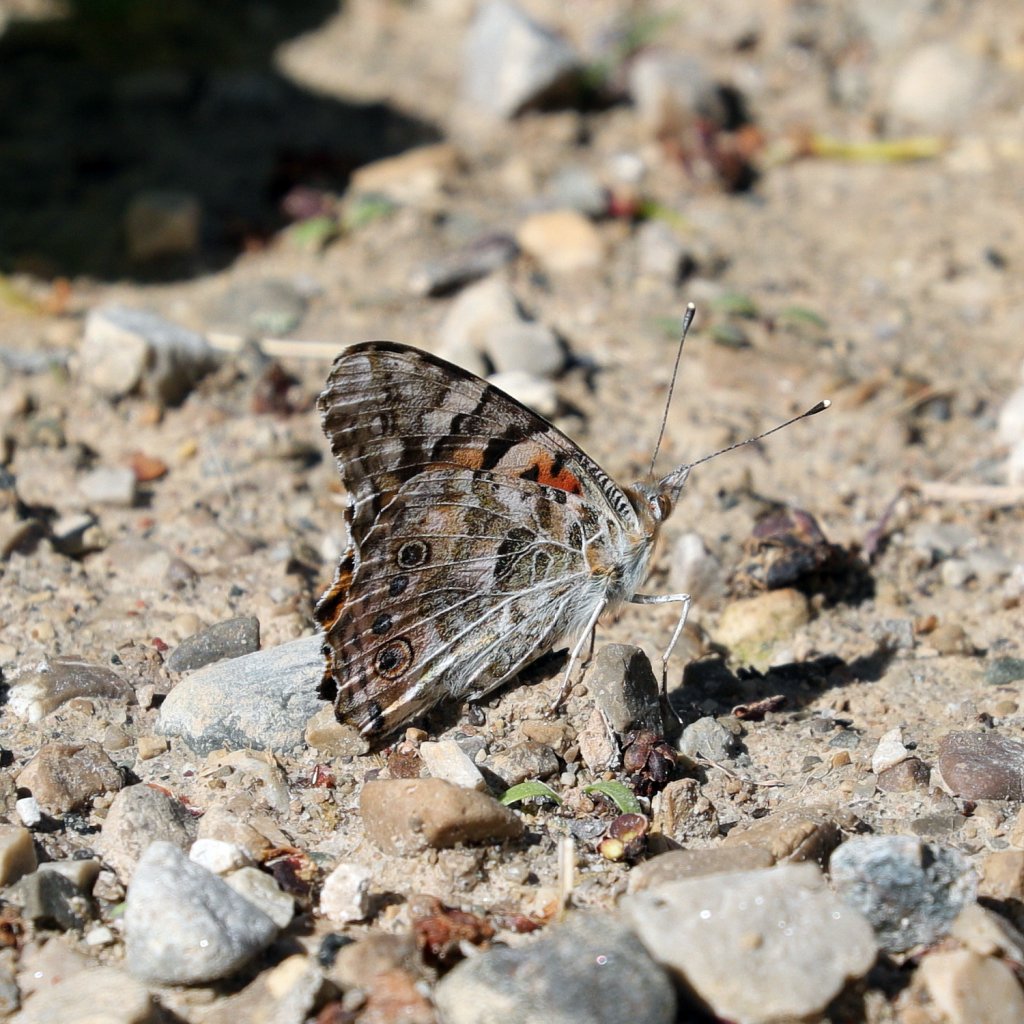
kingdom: Animalia
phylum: Arthropoda
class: Insecta
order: Lepidoptera
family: Nymphalidae
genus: Vanessa
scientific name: Vanessa cardui
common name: Painted Lady
